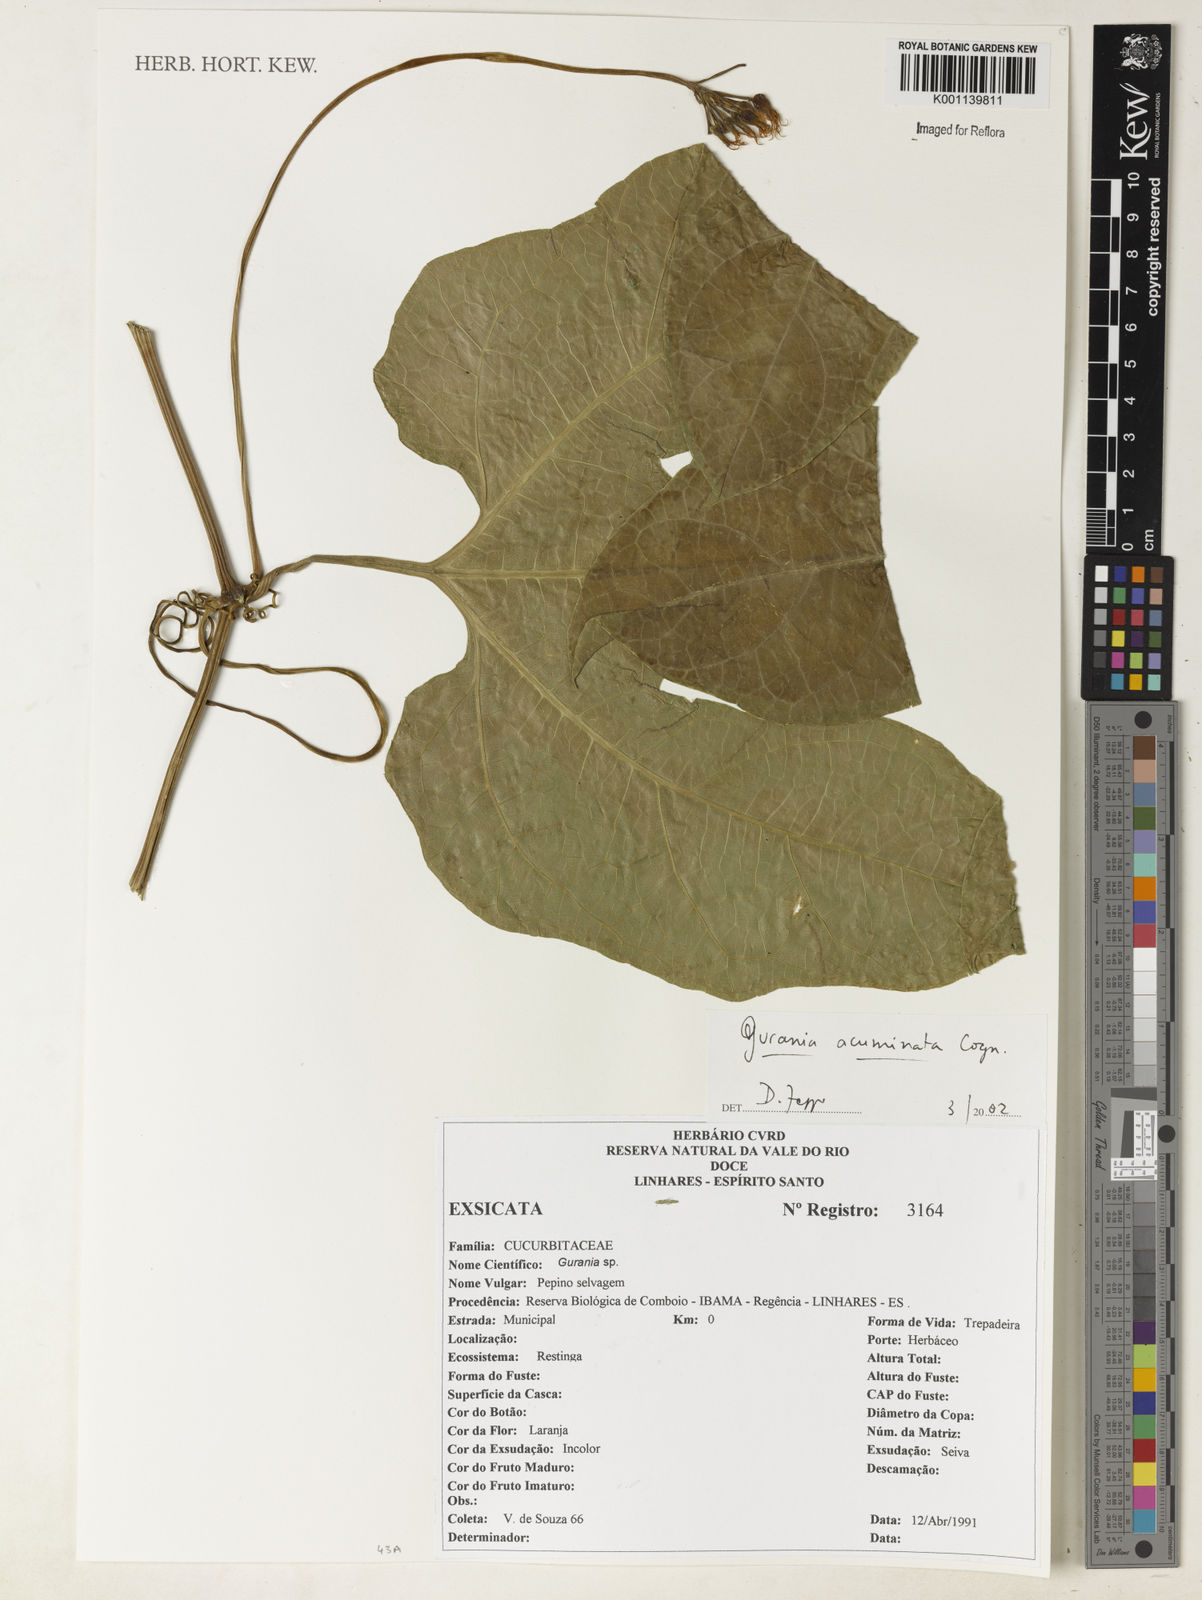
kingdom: Plantae
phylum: Tracheophyta
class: Magnoliopsida
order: Cucurbitales
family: Cucurbitaceae
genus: Gurania
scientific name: Gurania acuminata
